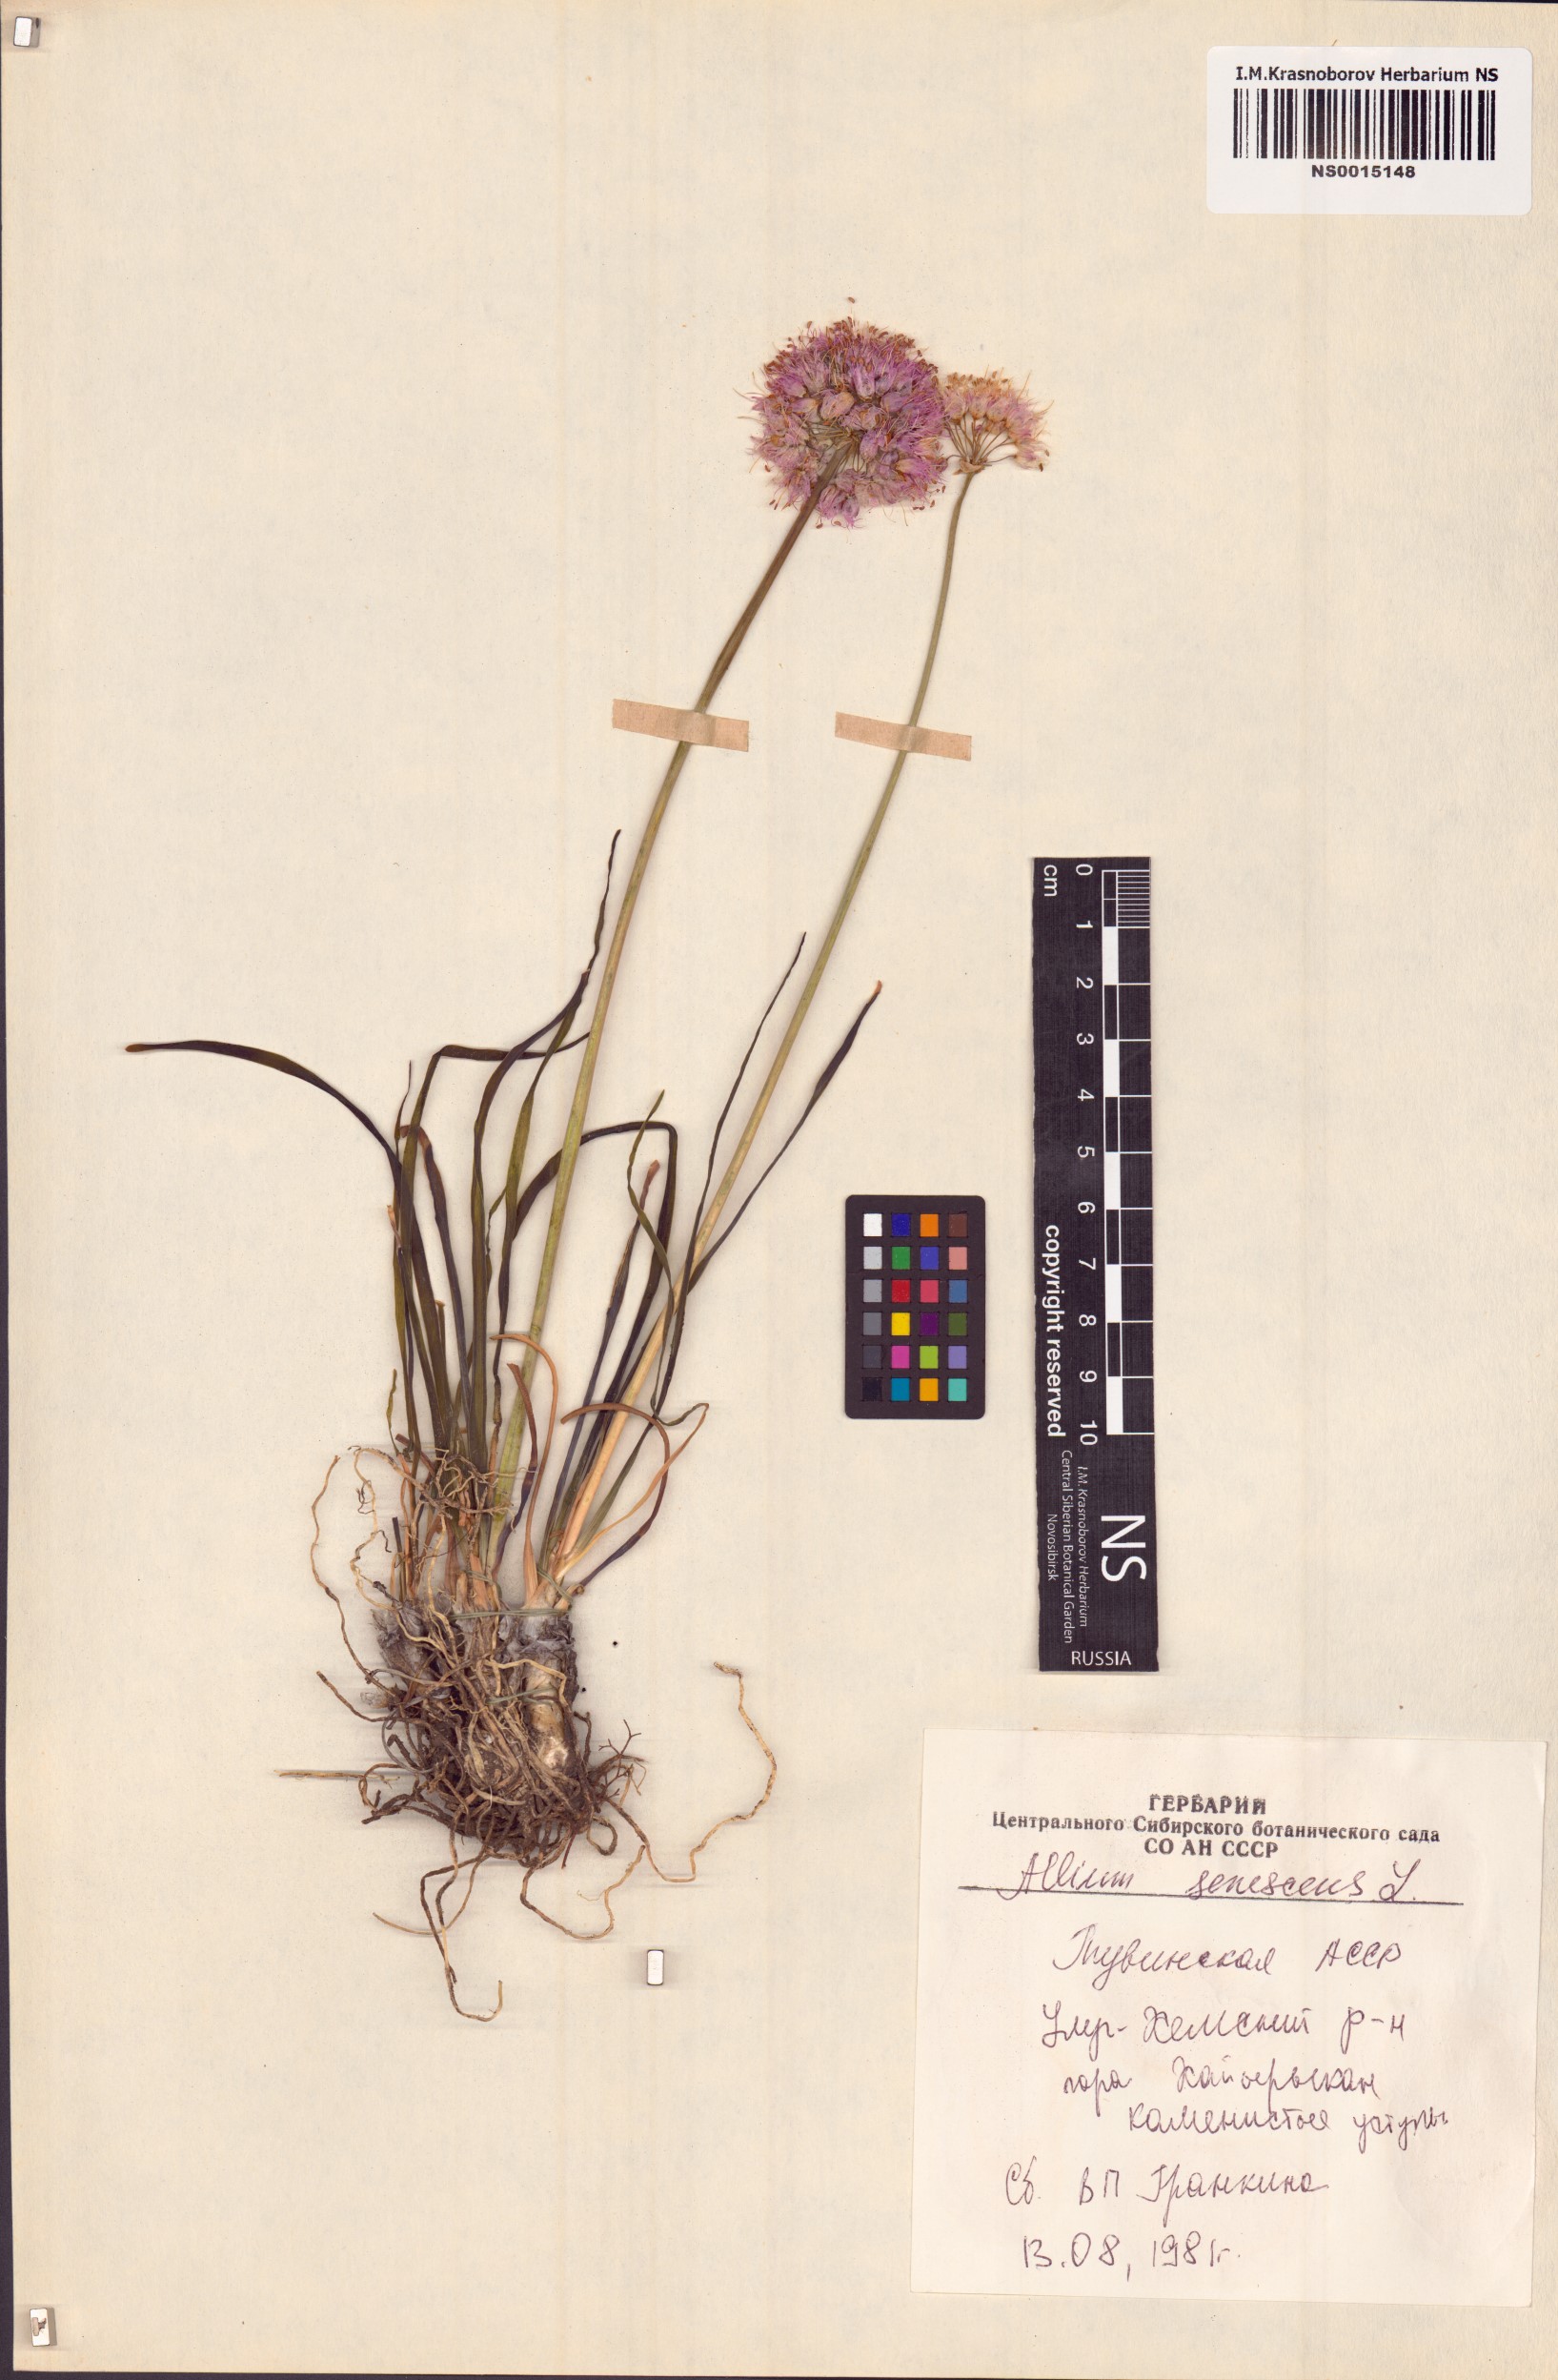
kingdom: Plantae
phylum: Tracheophyta
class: Liliopsida
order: Asparagales
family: Amaryllidaceae
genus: Allium
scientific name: Allium senescens
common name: German garlic
